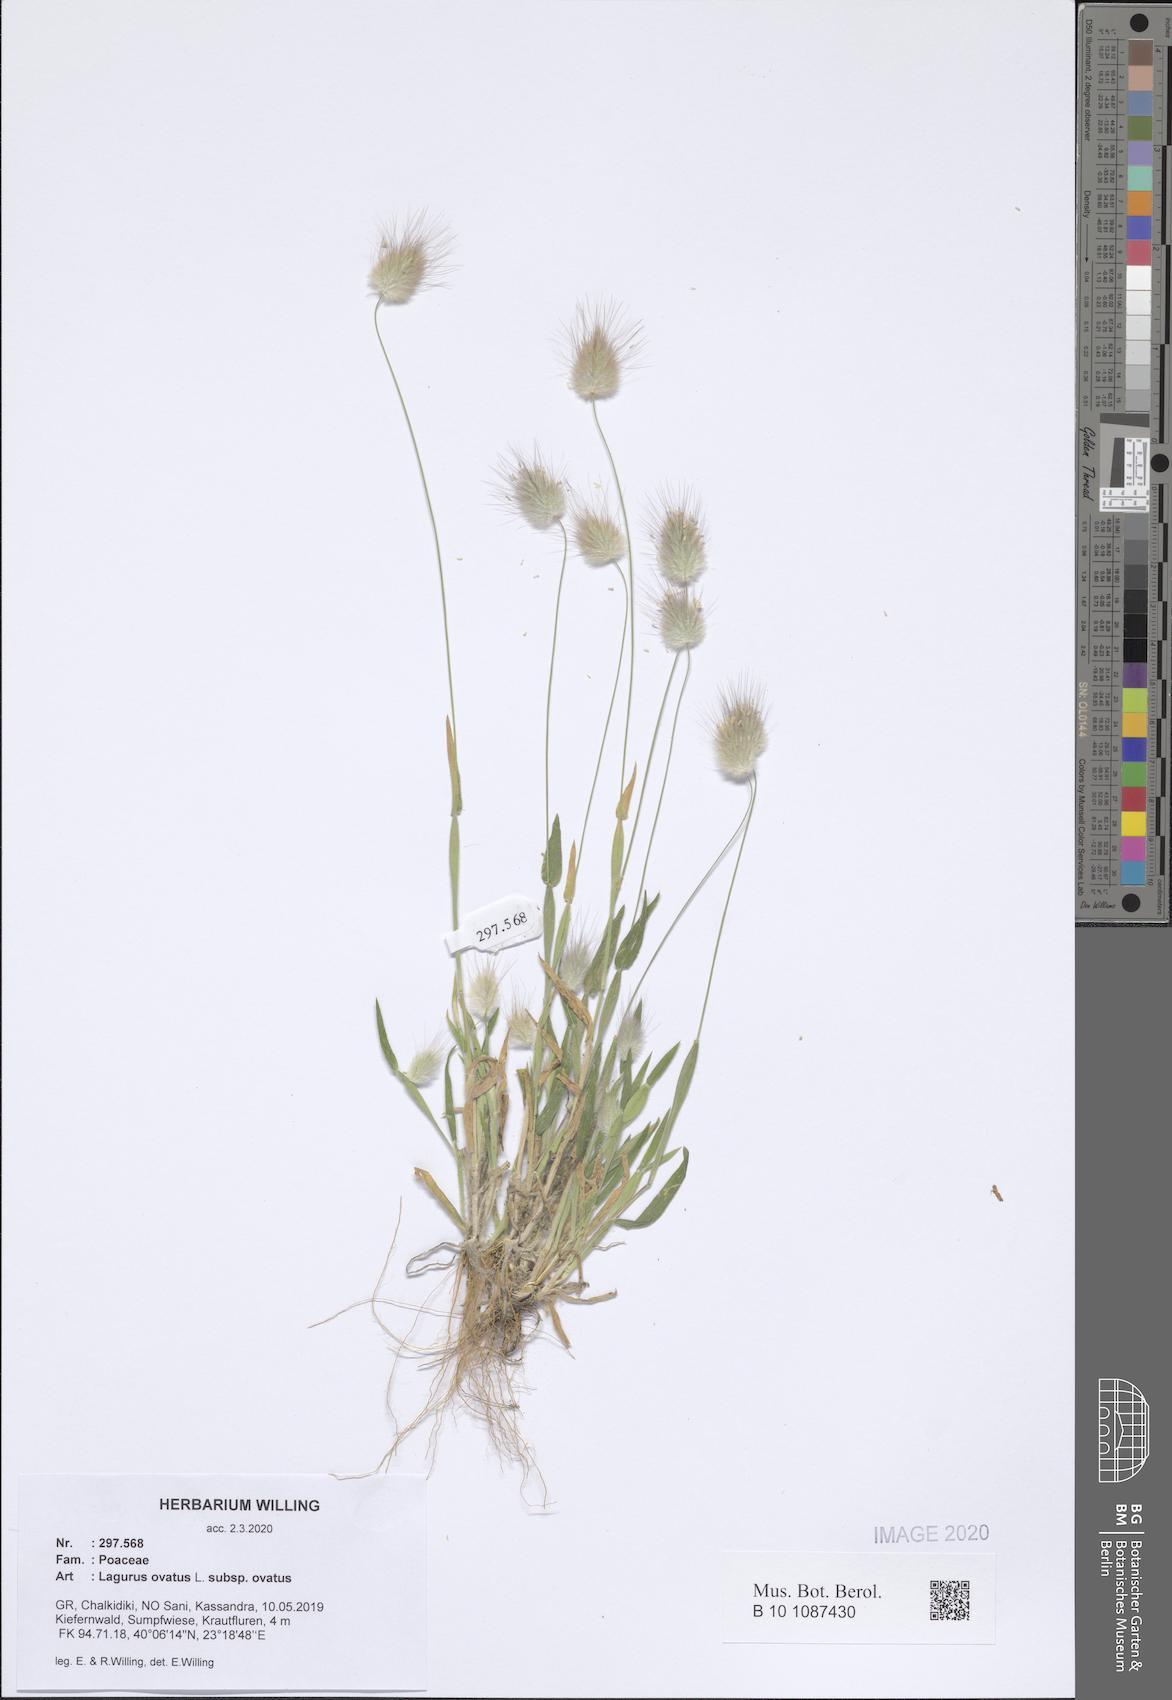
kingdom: Plantae
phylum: Tracheophyta
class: Liliopsida
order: Poales
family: Poaceae
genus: Lagurus
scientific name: Lagurus ovatus
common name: Hare's-tail
